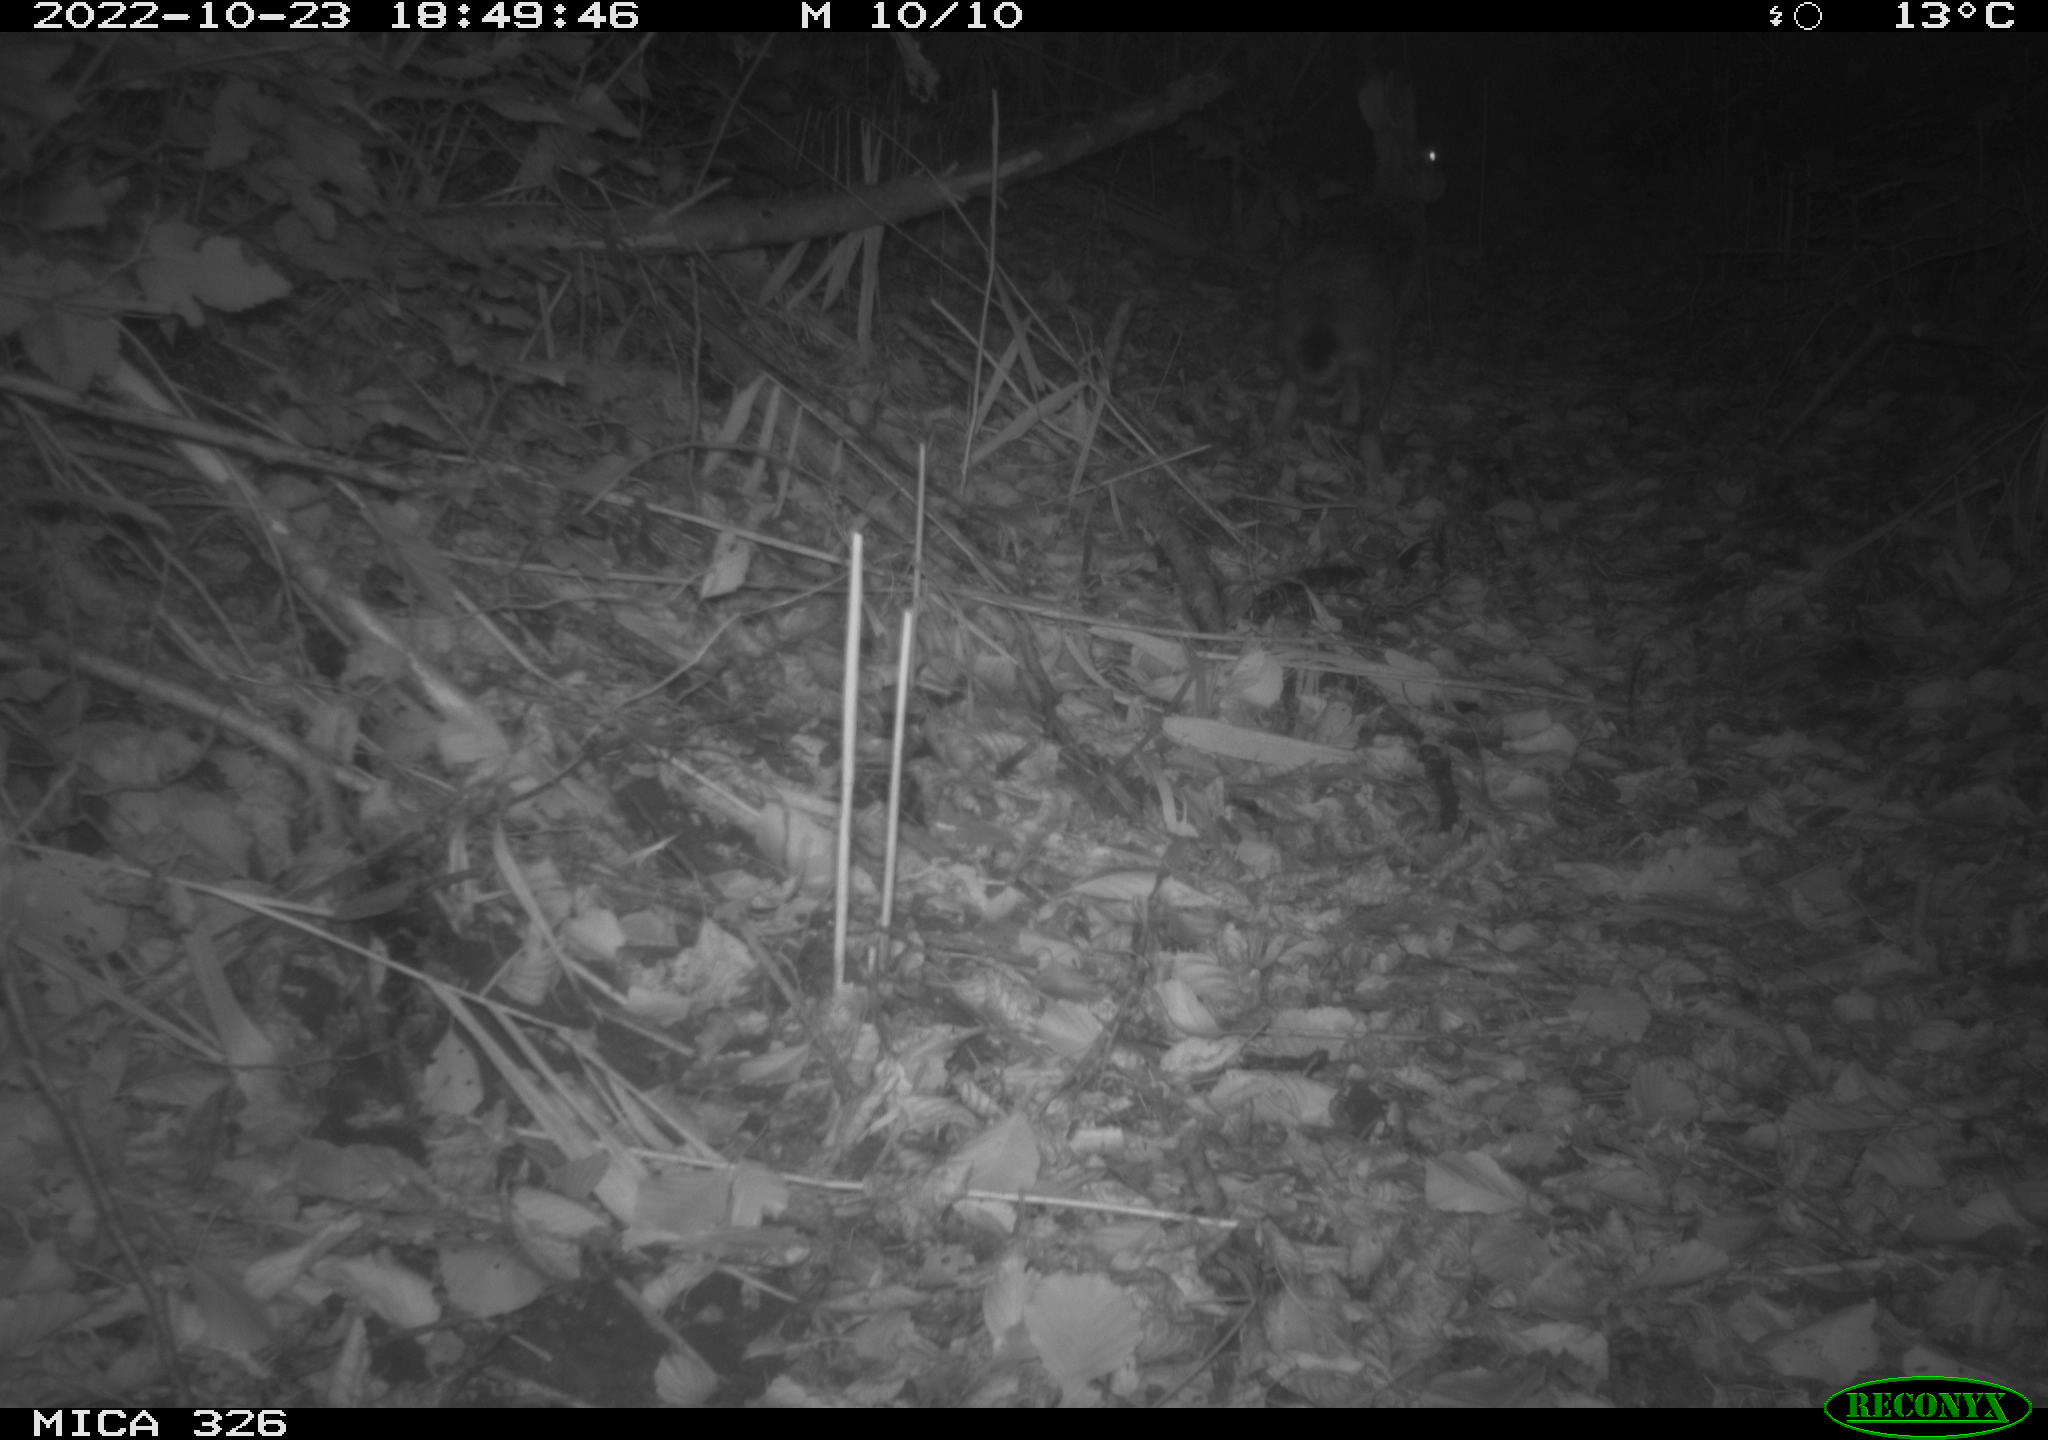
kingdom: Animalia
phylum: Chordata
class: Mammalia
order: Lagomorpha
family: Leporidae
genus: Lepus
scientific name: Lepus europaeus
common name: European hare
